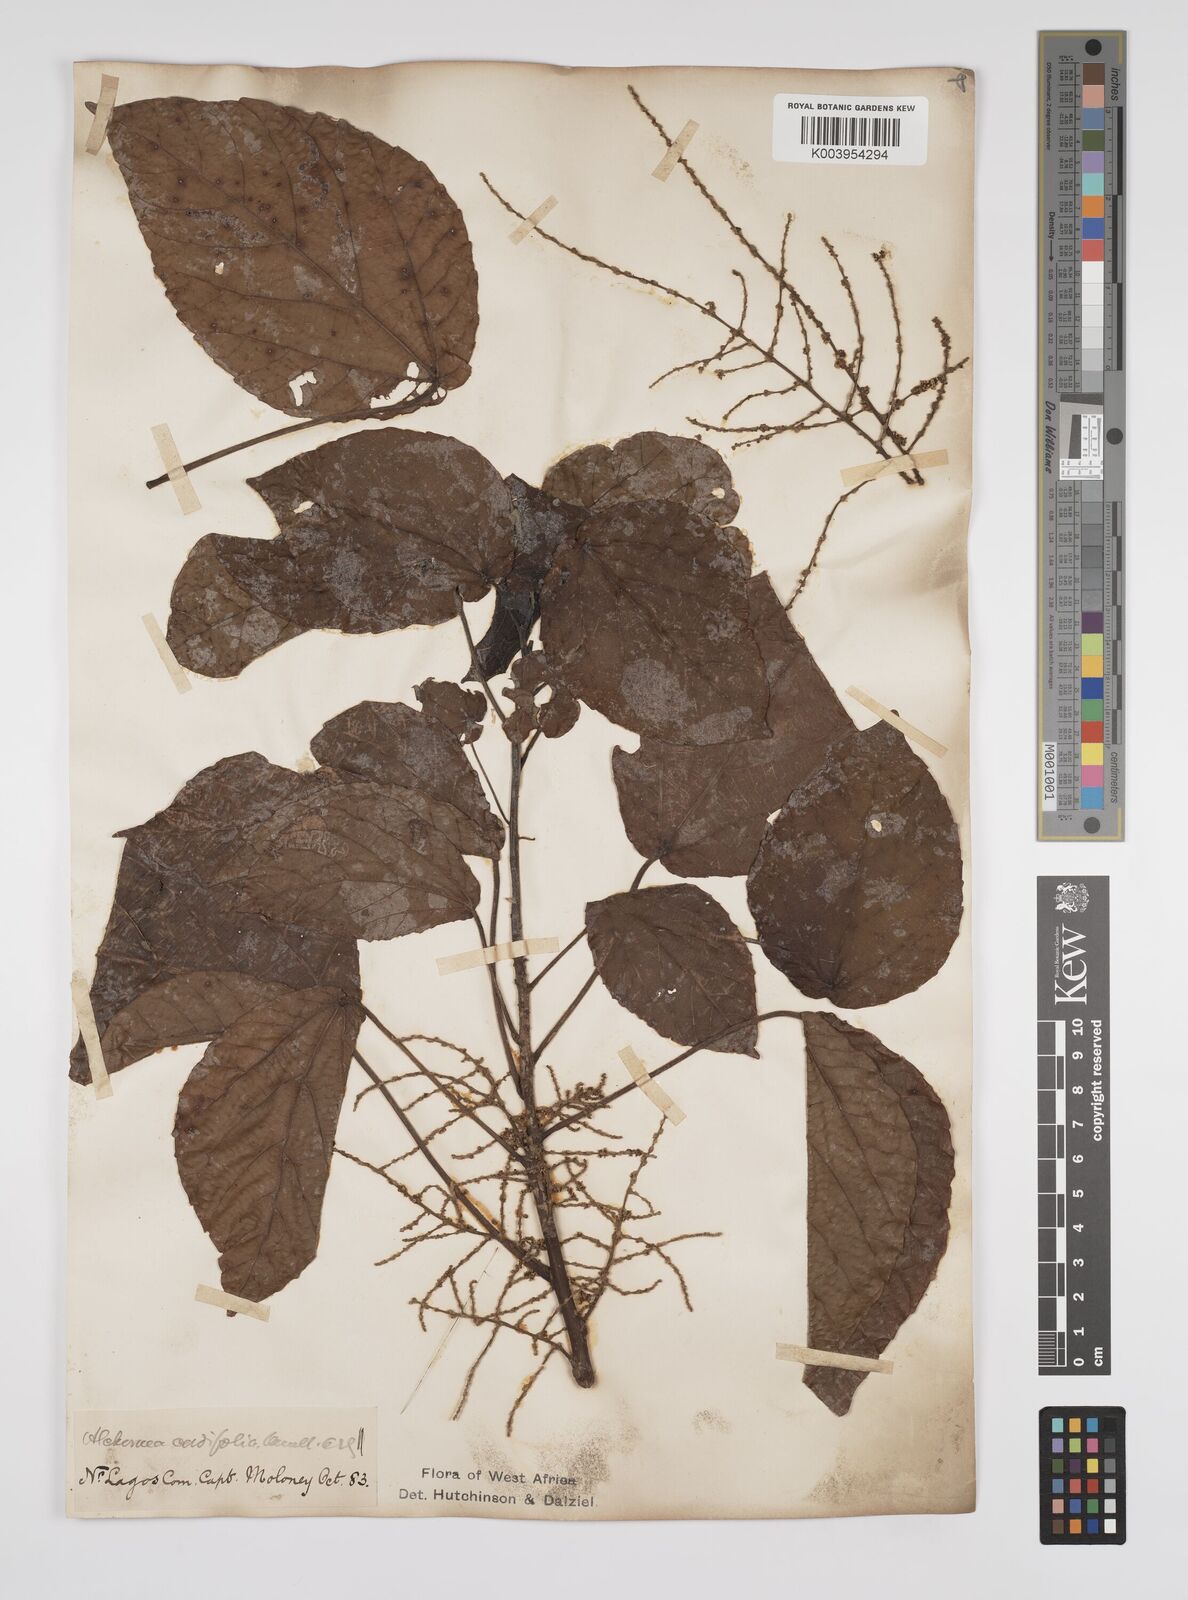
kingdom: Plantae
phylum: Tracheophyta
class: Magnoliopsida
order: Malpighiales
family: Euphorbiaceae
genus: Alchornea
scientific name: Alchornea cordifolia
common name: Christmasbush
